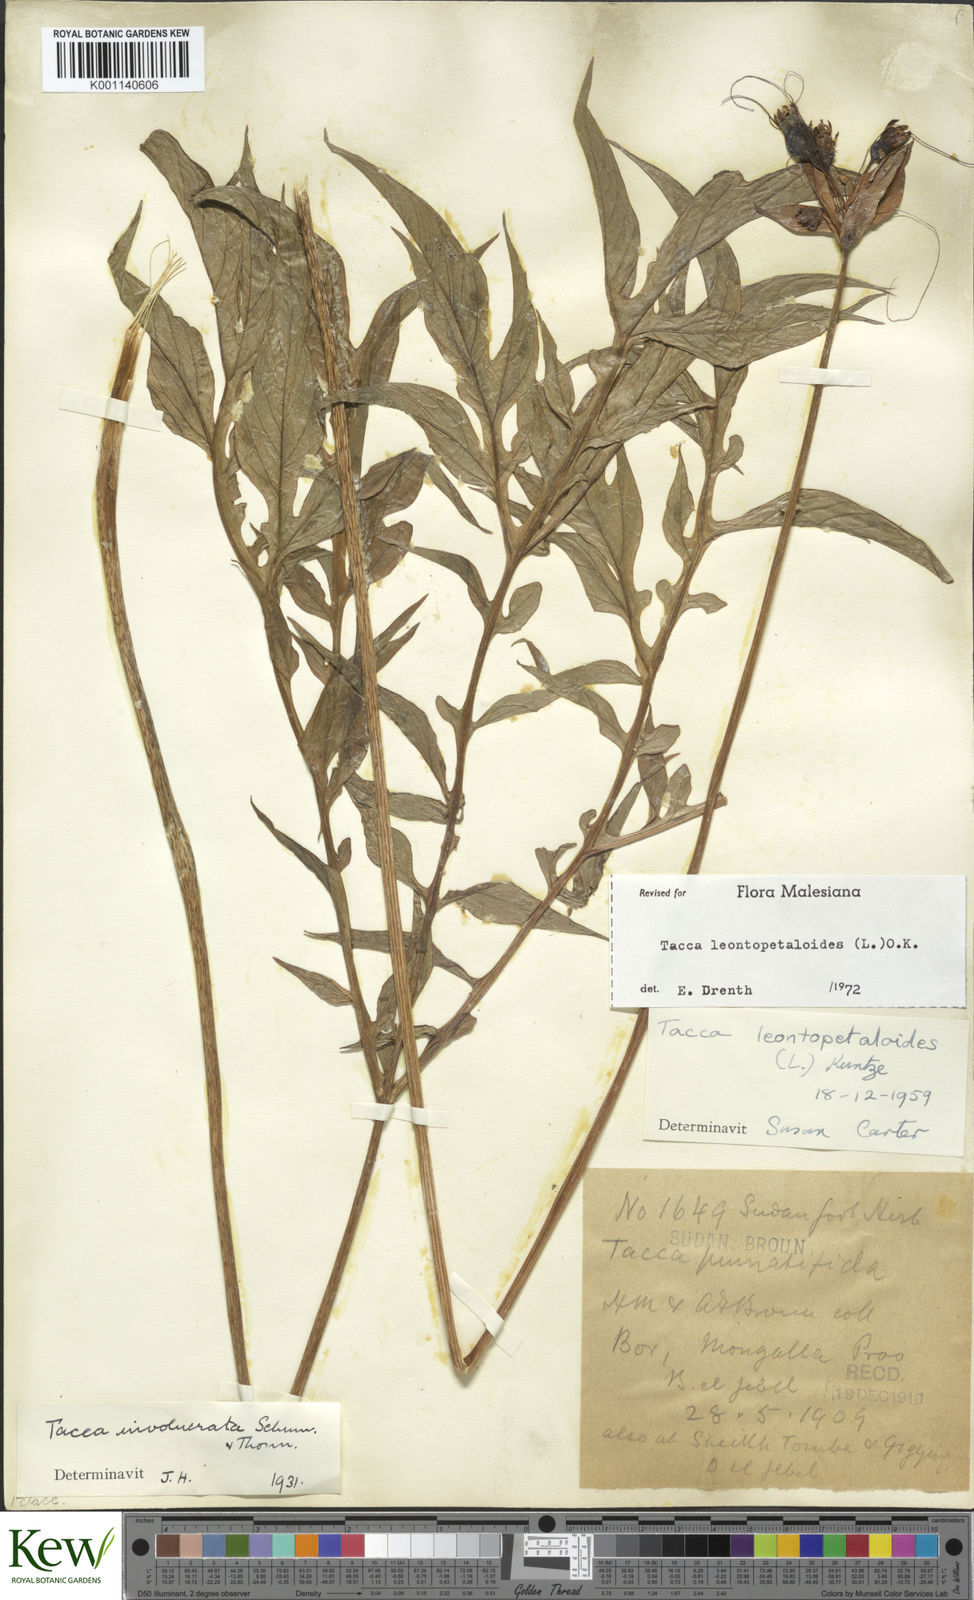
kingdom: Plantae
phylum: Tracheophyta
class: Liliopsida
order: Dioscoreales
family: Dioscoreaceae
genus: Tacca
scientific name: Tacca leontopetaloides
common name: Arrowroot
